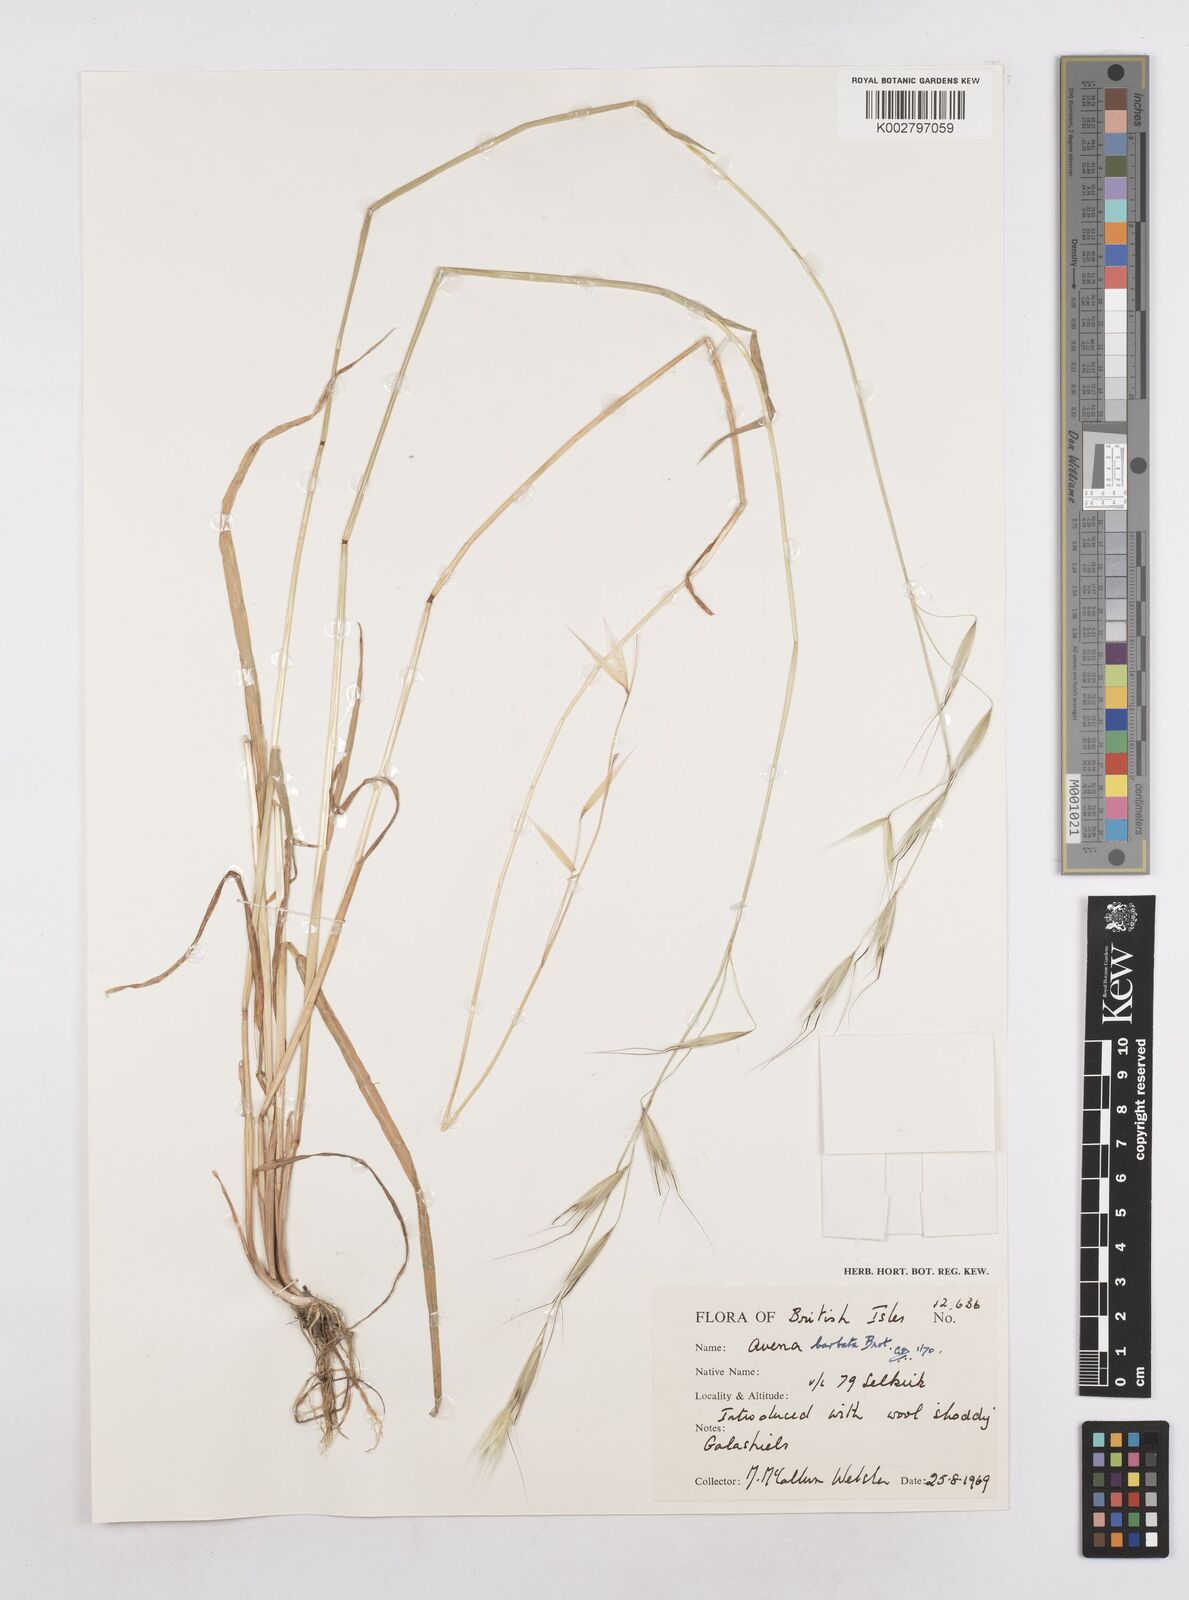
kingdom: Plantae
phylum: Tracheophyta
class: Liliopsida
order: Poales
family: Poaceae
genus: Avena
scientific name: Avena
